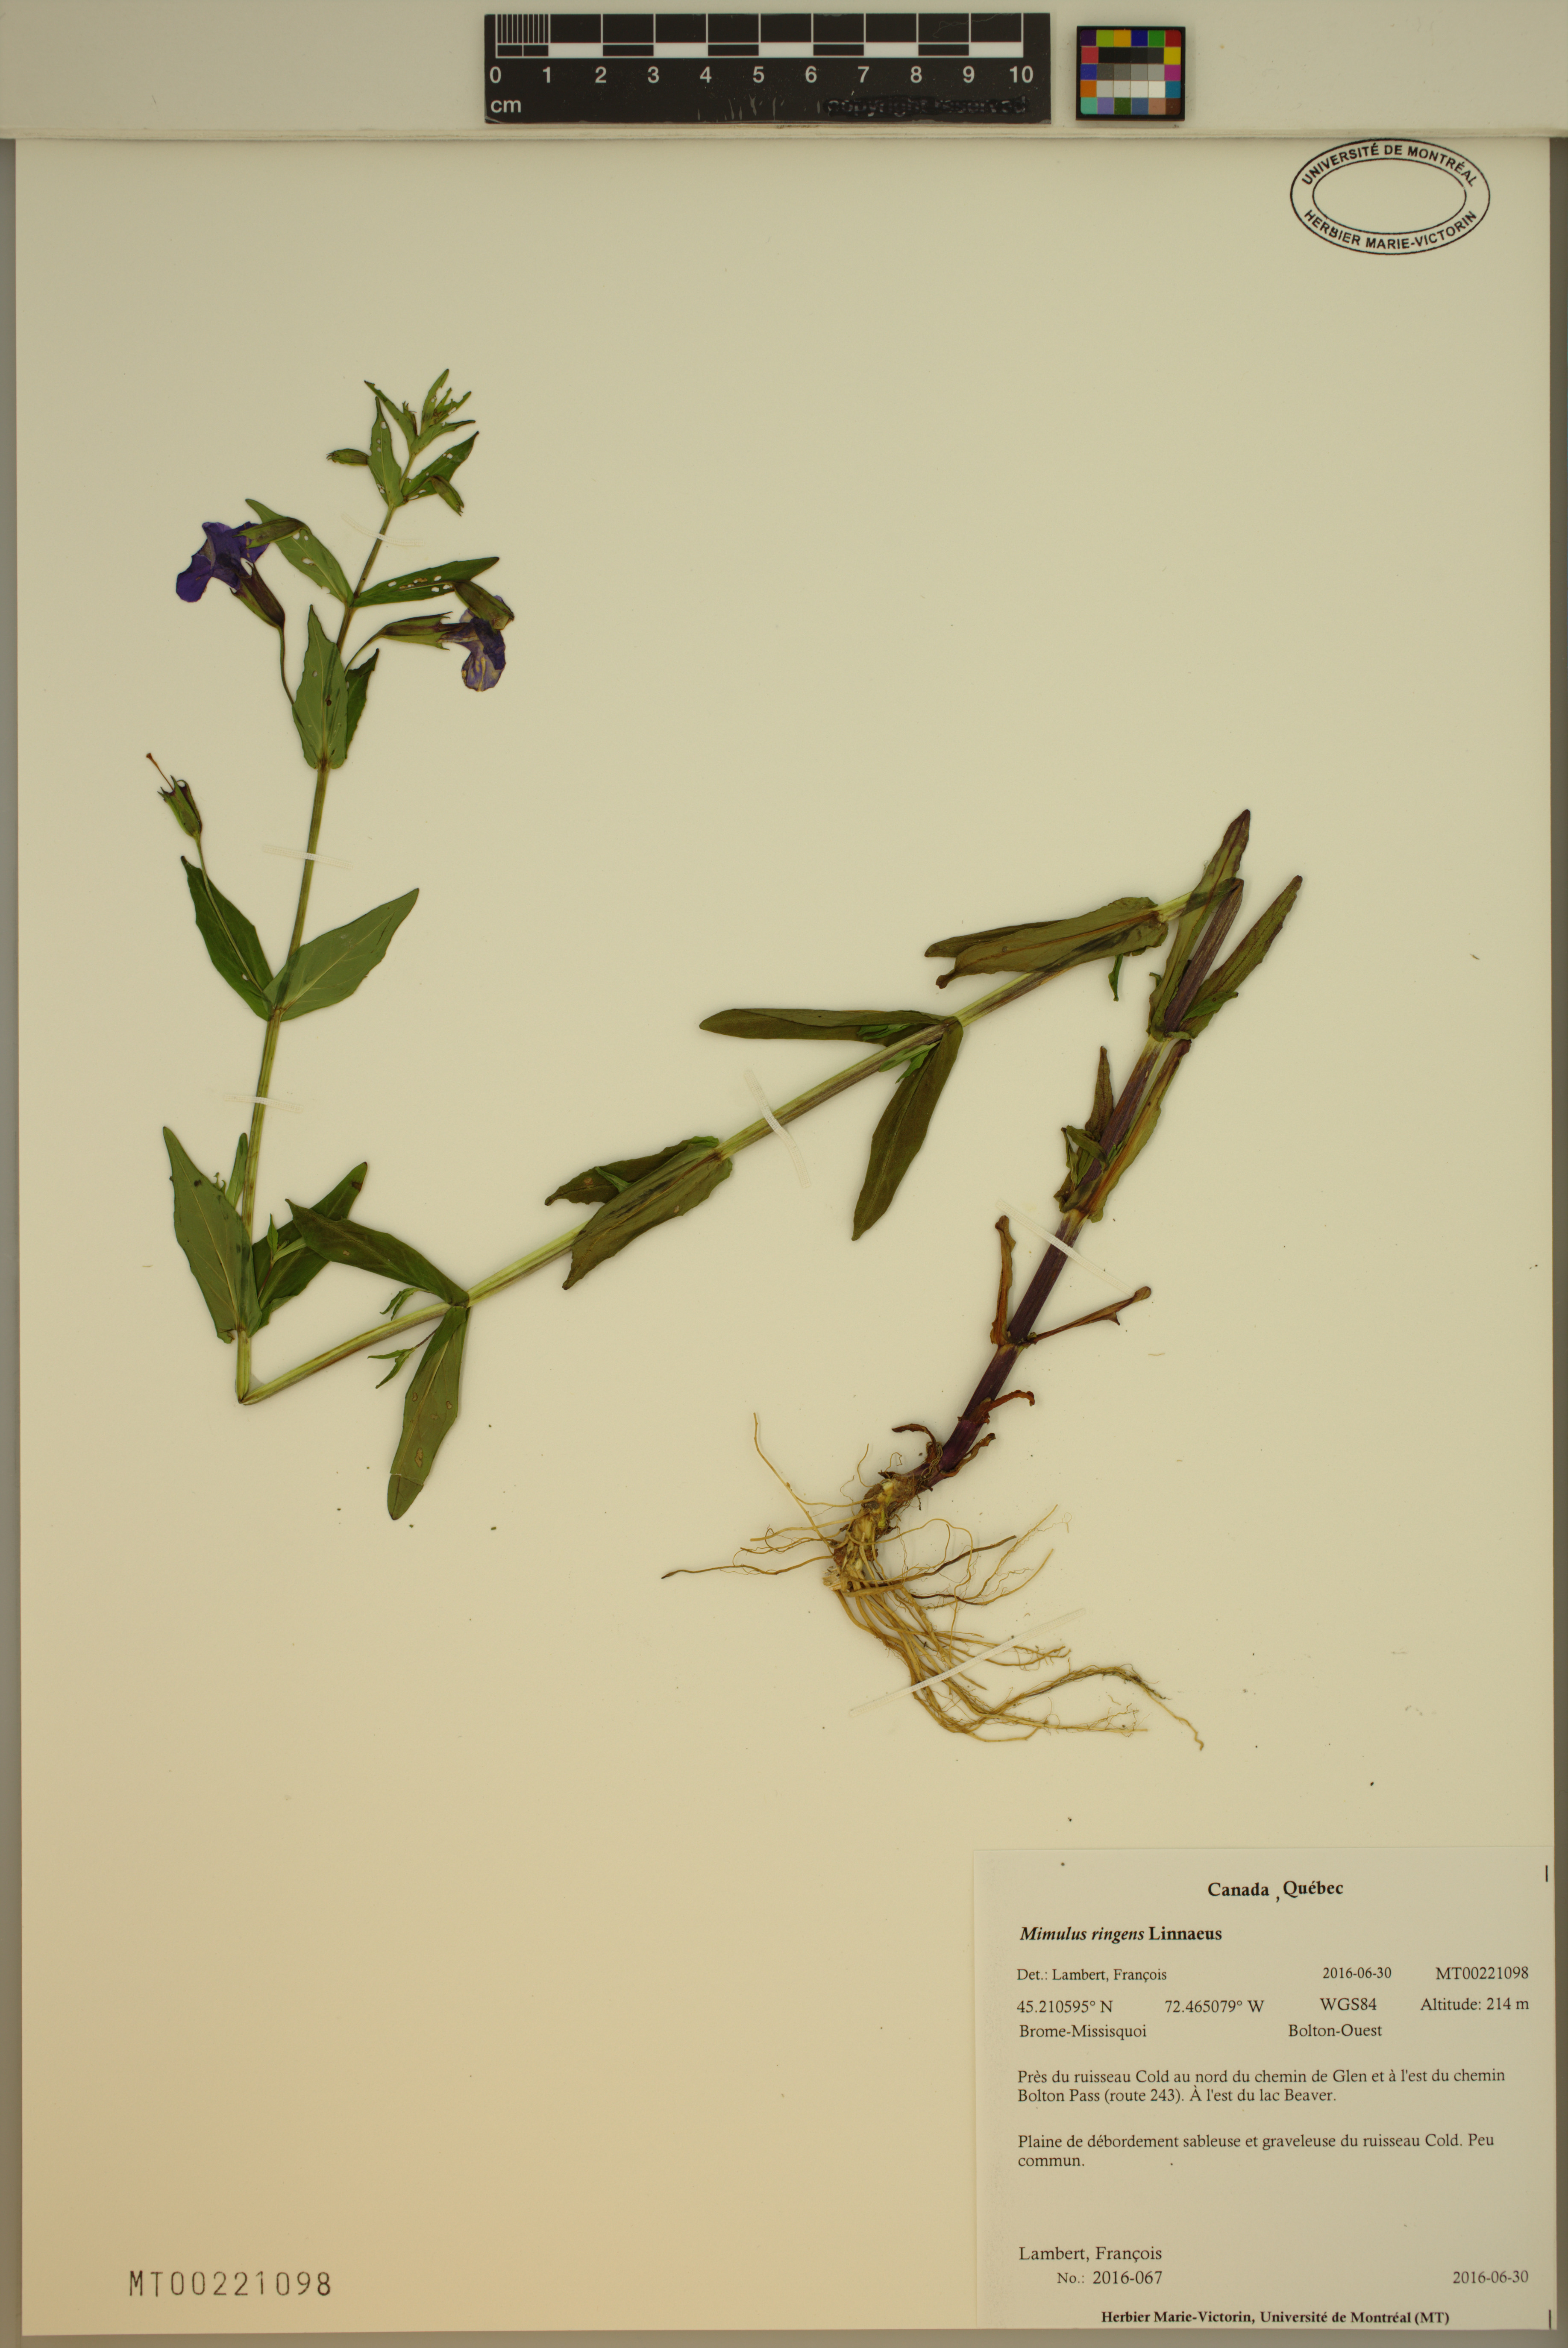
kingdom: Plantae
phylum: Tracheophyta
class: Magnoliopsida
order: Lamiales
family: Phrymaceae
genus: Mimulus
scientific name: Mimulus ringens
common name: Allegheny monkeyflower
